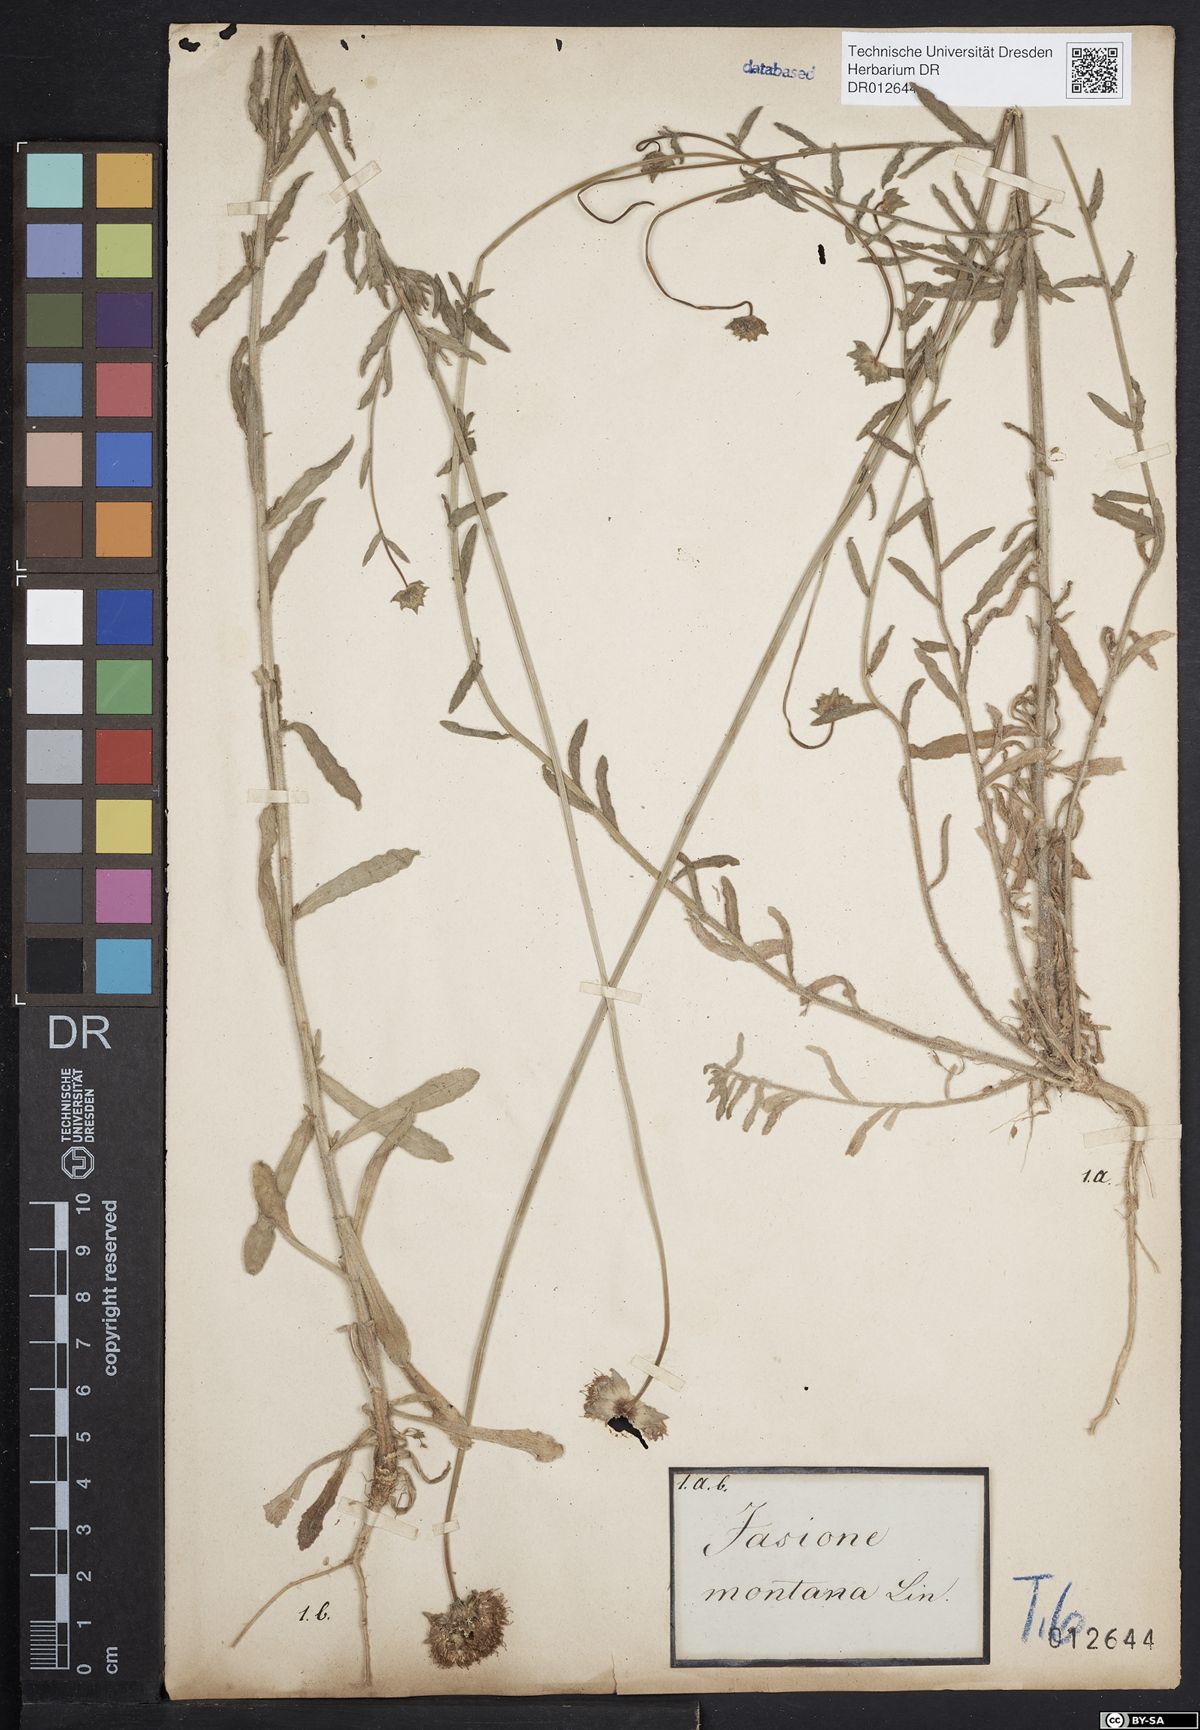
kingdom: Plantae
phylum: Tracheophyta
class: Magnoliopsida
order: Asterales
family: Campanulaceae
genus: Jasione
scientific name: Jasione montana
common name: Sheep's-bit
